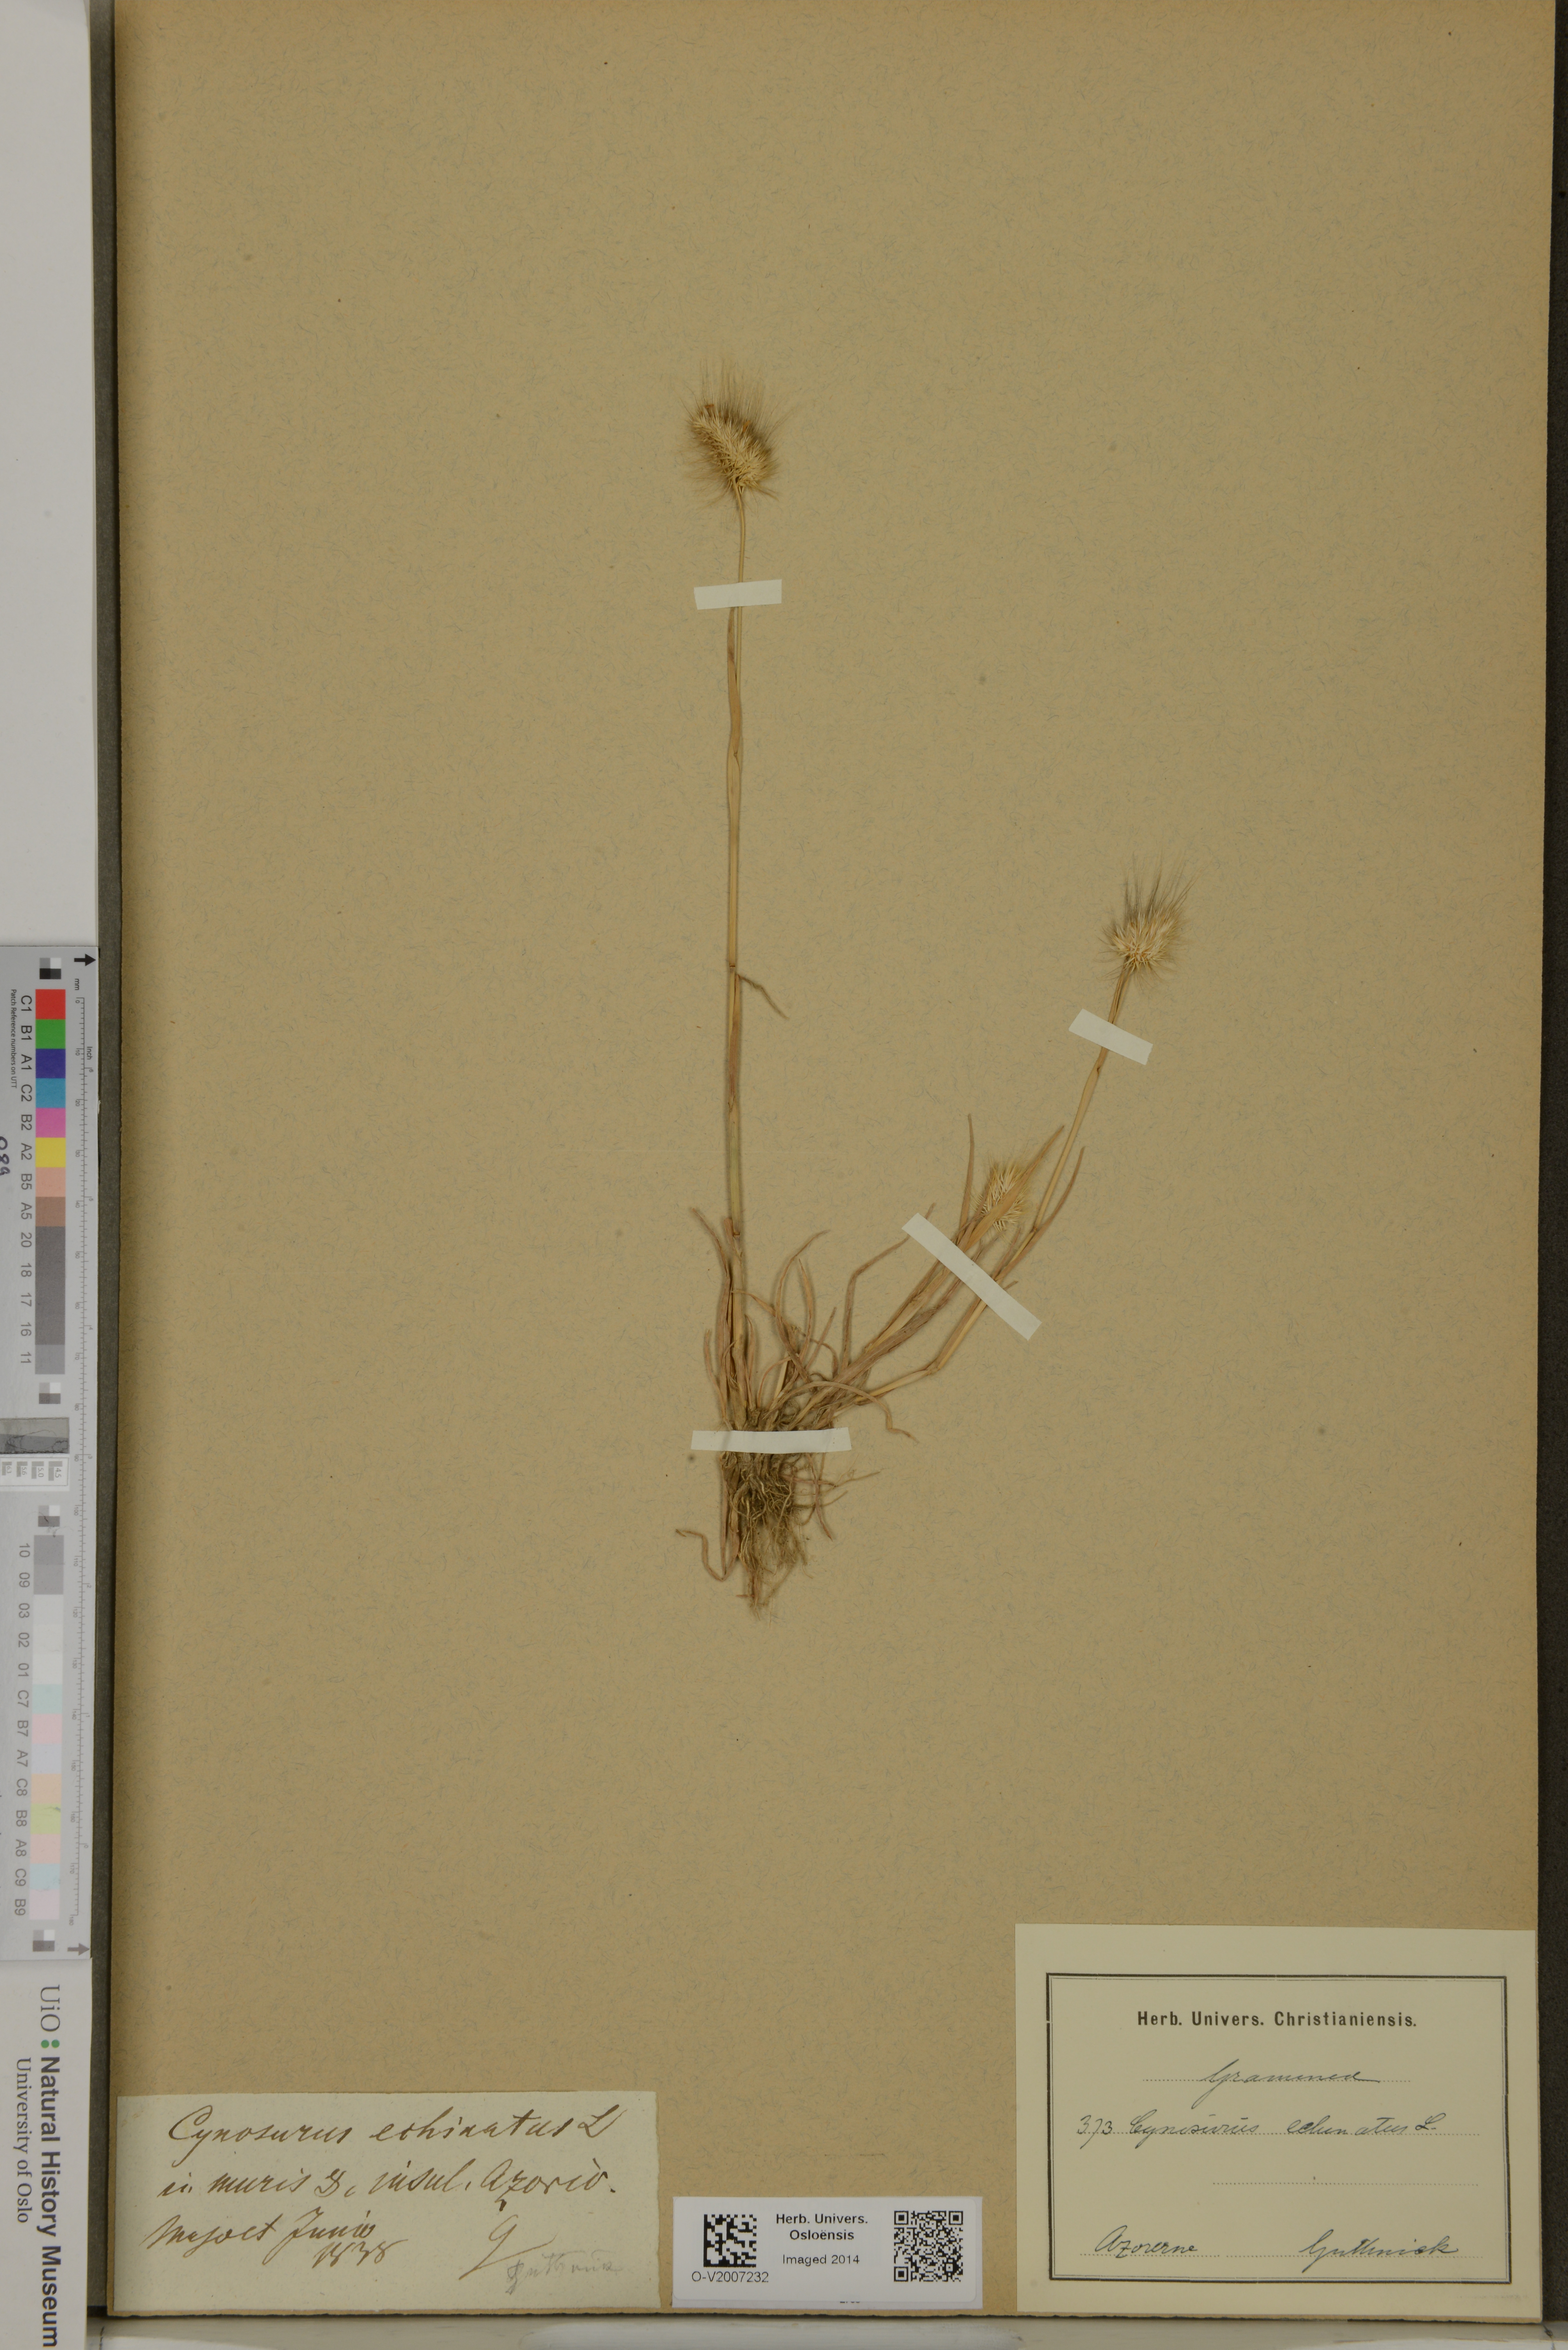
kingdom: Plantae
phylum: Tracheophyta
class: Liliopsida
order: Poales
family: Poaceae
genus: Cynosurus
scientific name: Cynosurus echinatus
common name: Rough dog's-tail
